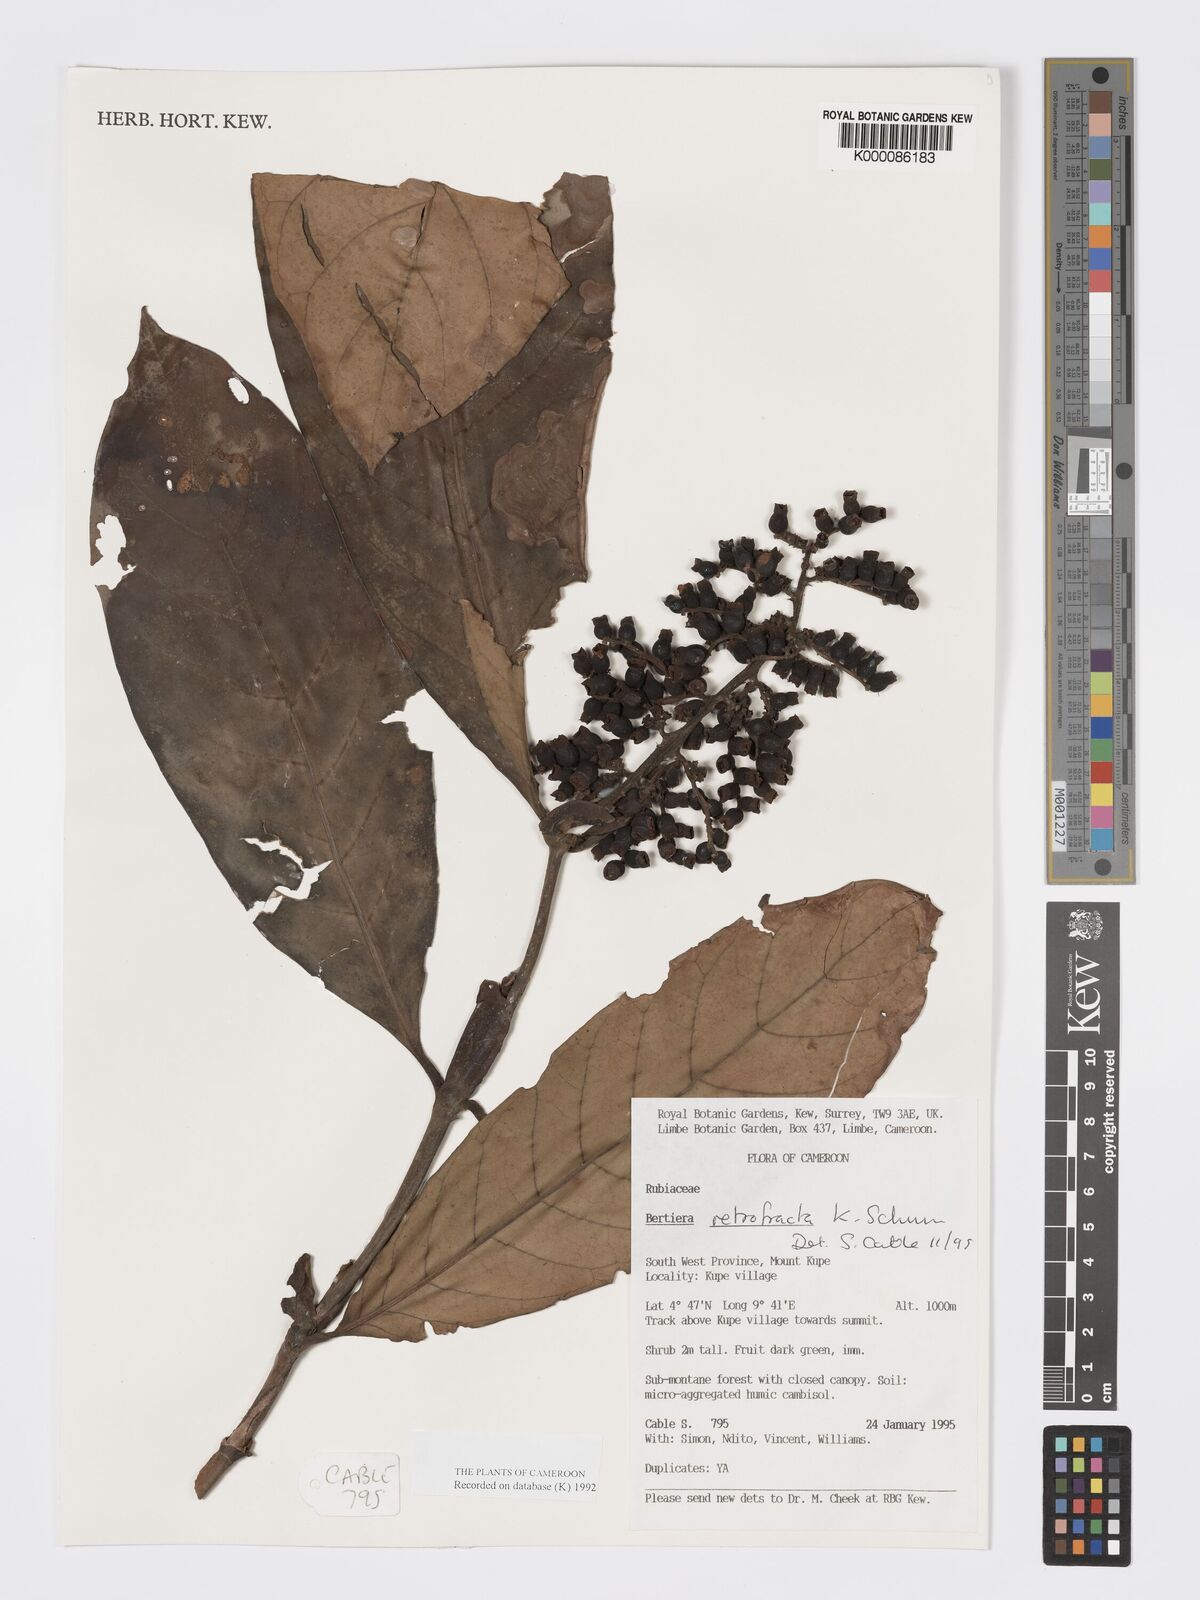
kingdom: Plantae
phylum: Tracheophyta
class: Magnoliopsida
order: Gentianales
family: Rubiaceae
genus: Bertiera
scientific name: Bertiera retrofracta
